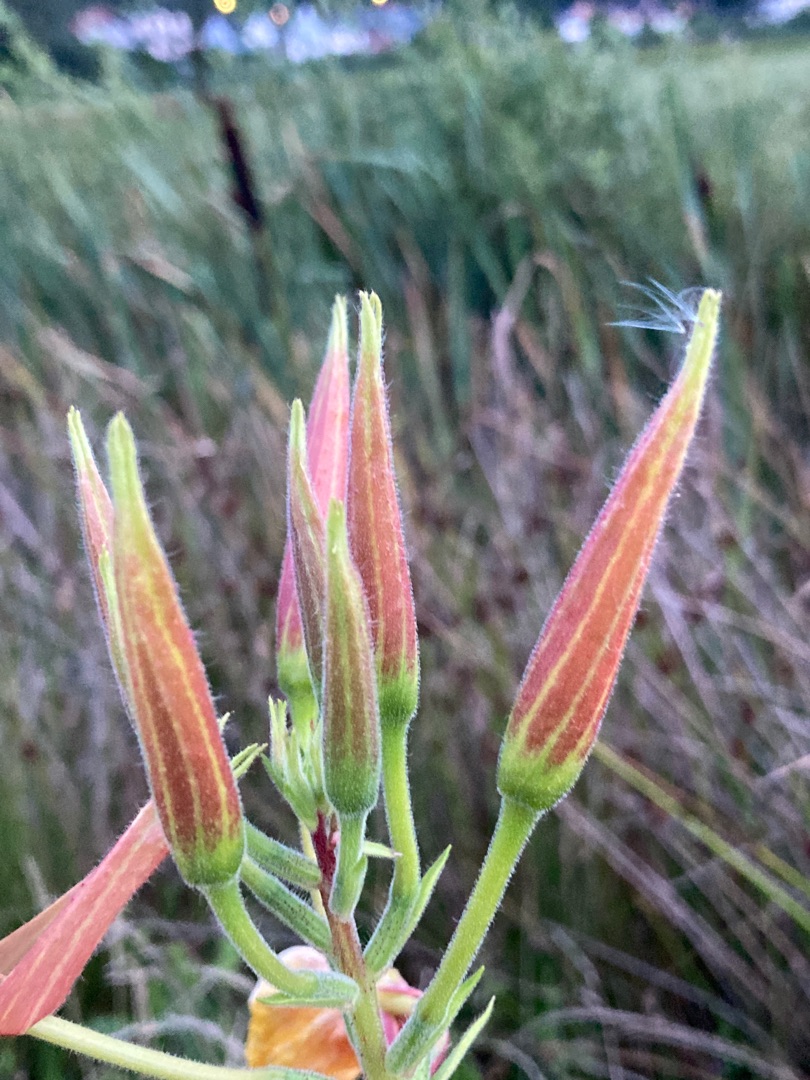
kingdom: Plantae
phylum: Tracheophyta
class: Magnoliopsida
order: Myrtales
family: Onagraceae
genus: Oenothera
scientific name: Oenothera glazioviana
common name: Kæmpe-natlys
